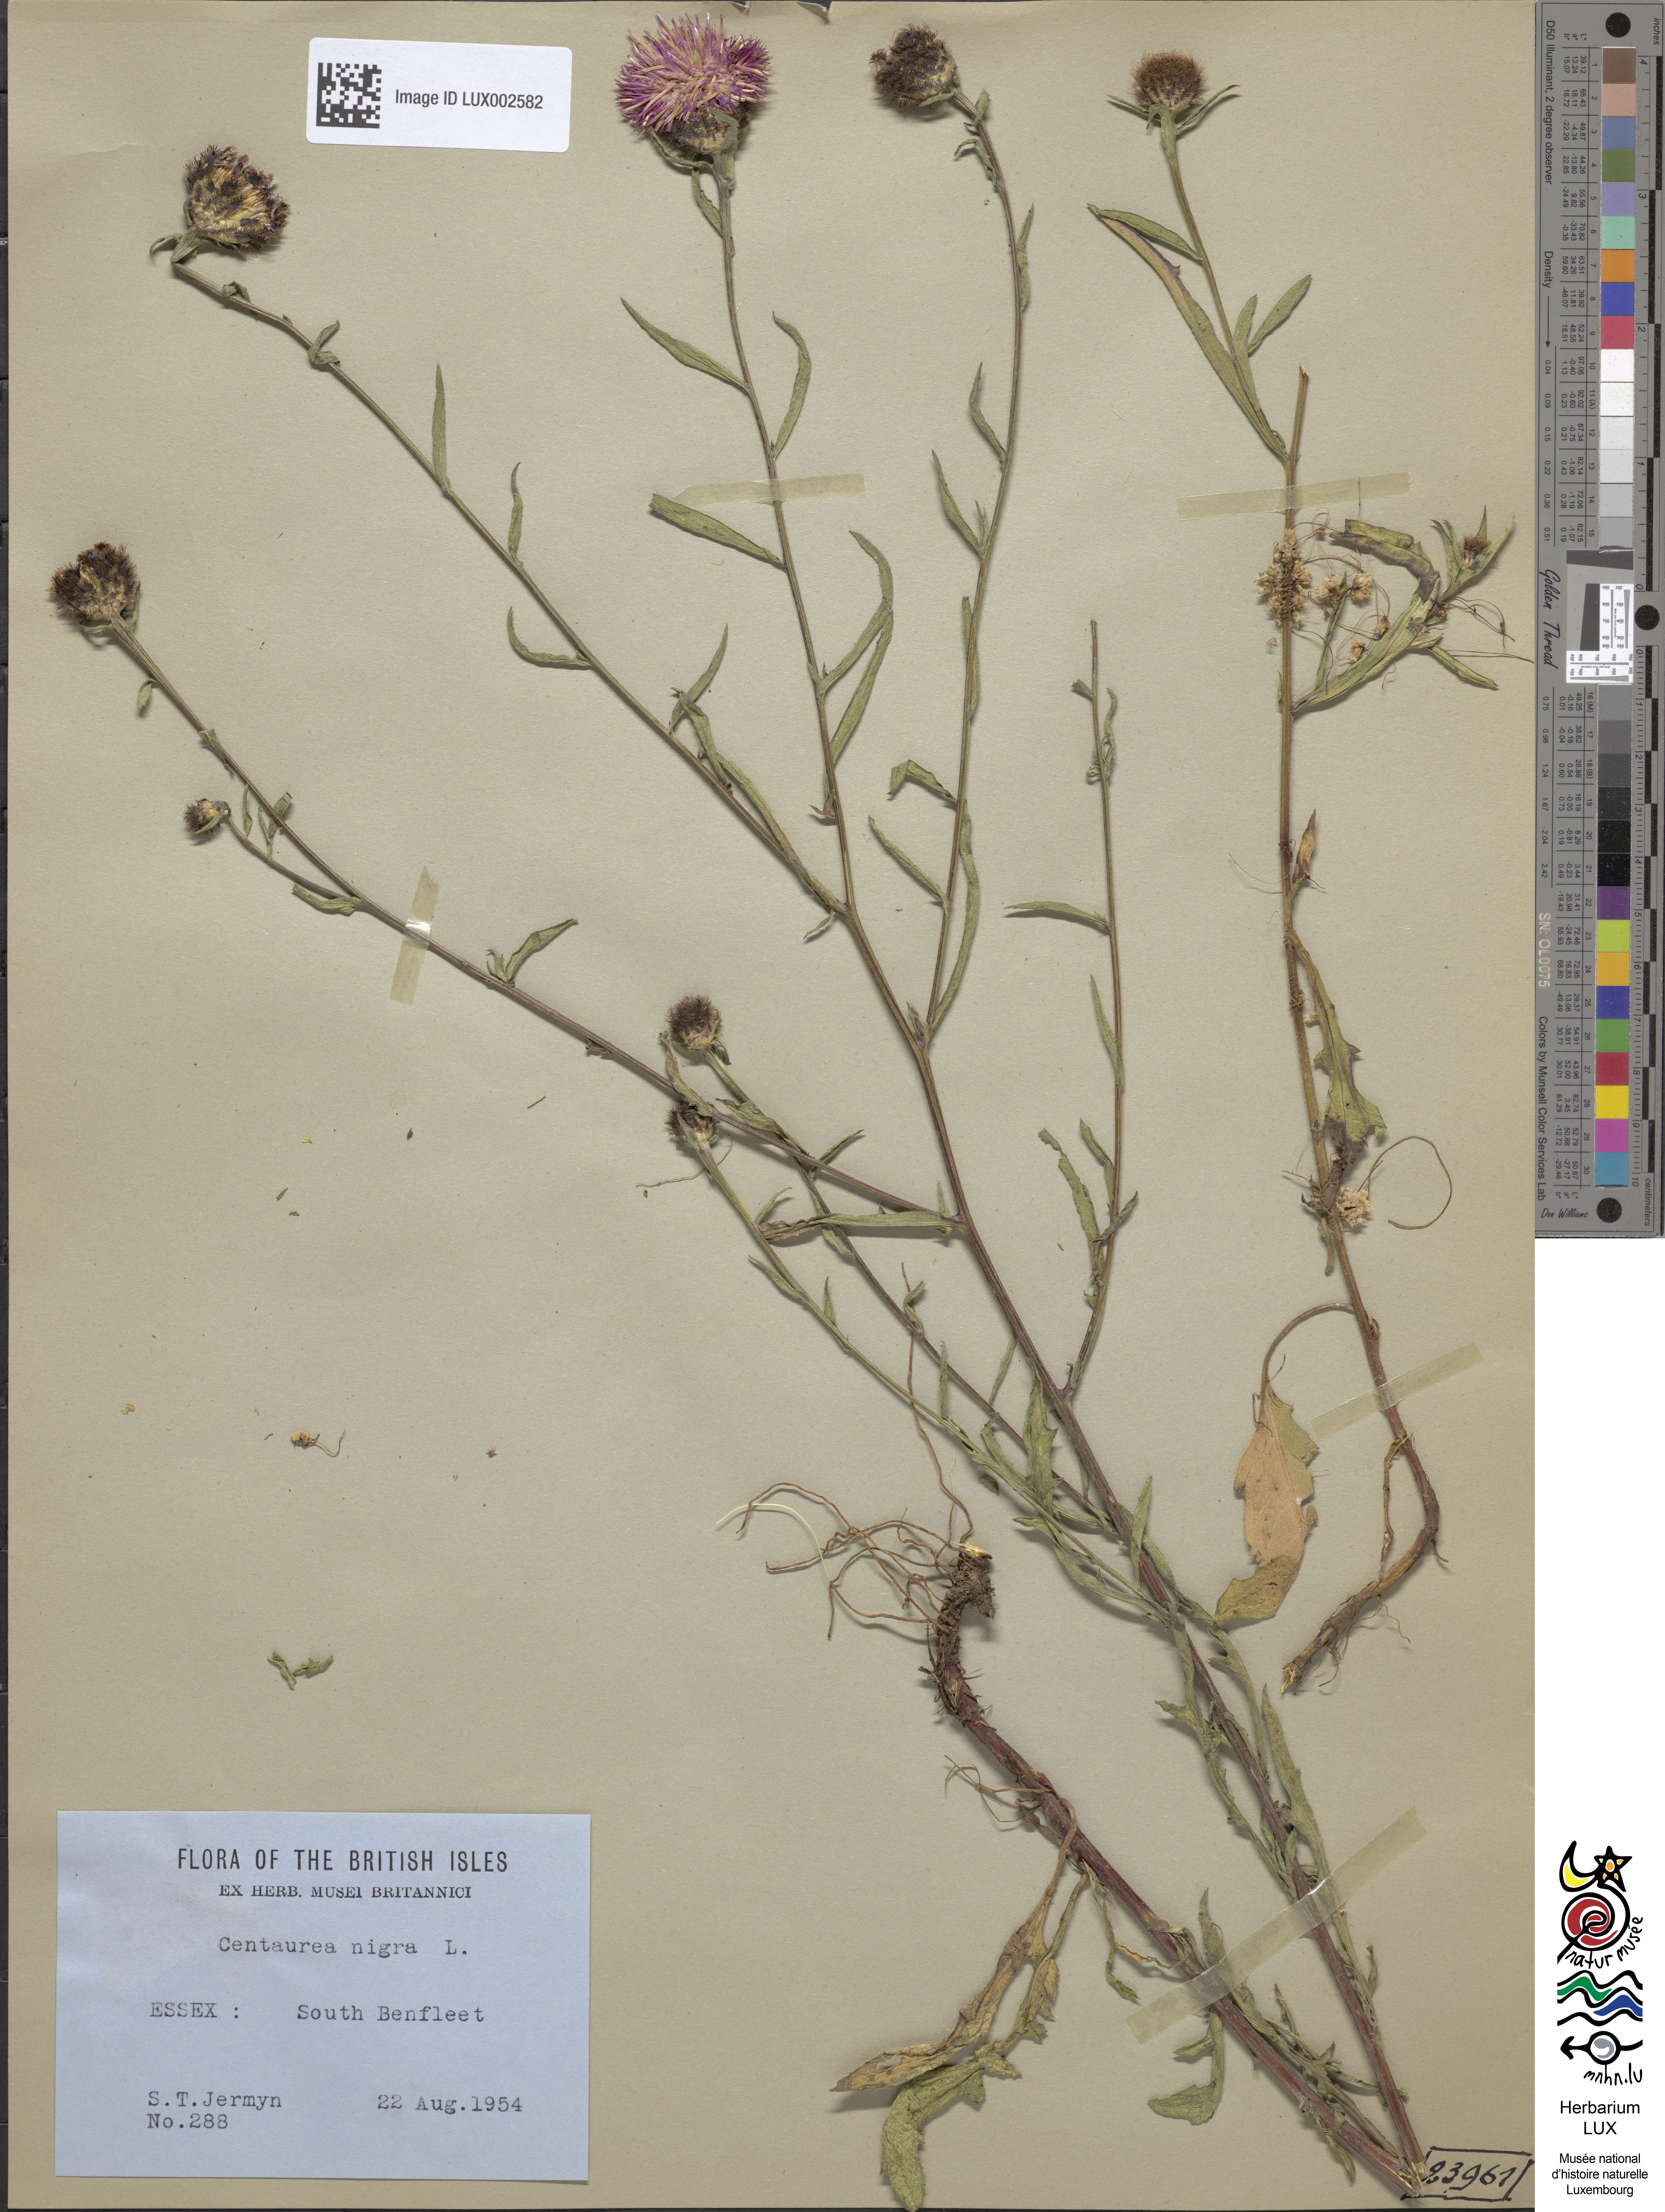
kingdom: Plantae
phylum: Tracheophyta
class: Magnoliopsida
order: Asterales
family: Asteraceae
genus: Centaurea
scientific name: Centaurea nigra
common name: Lesser knapweed
